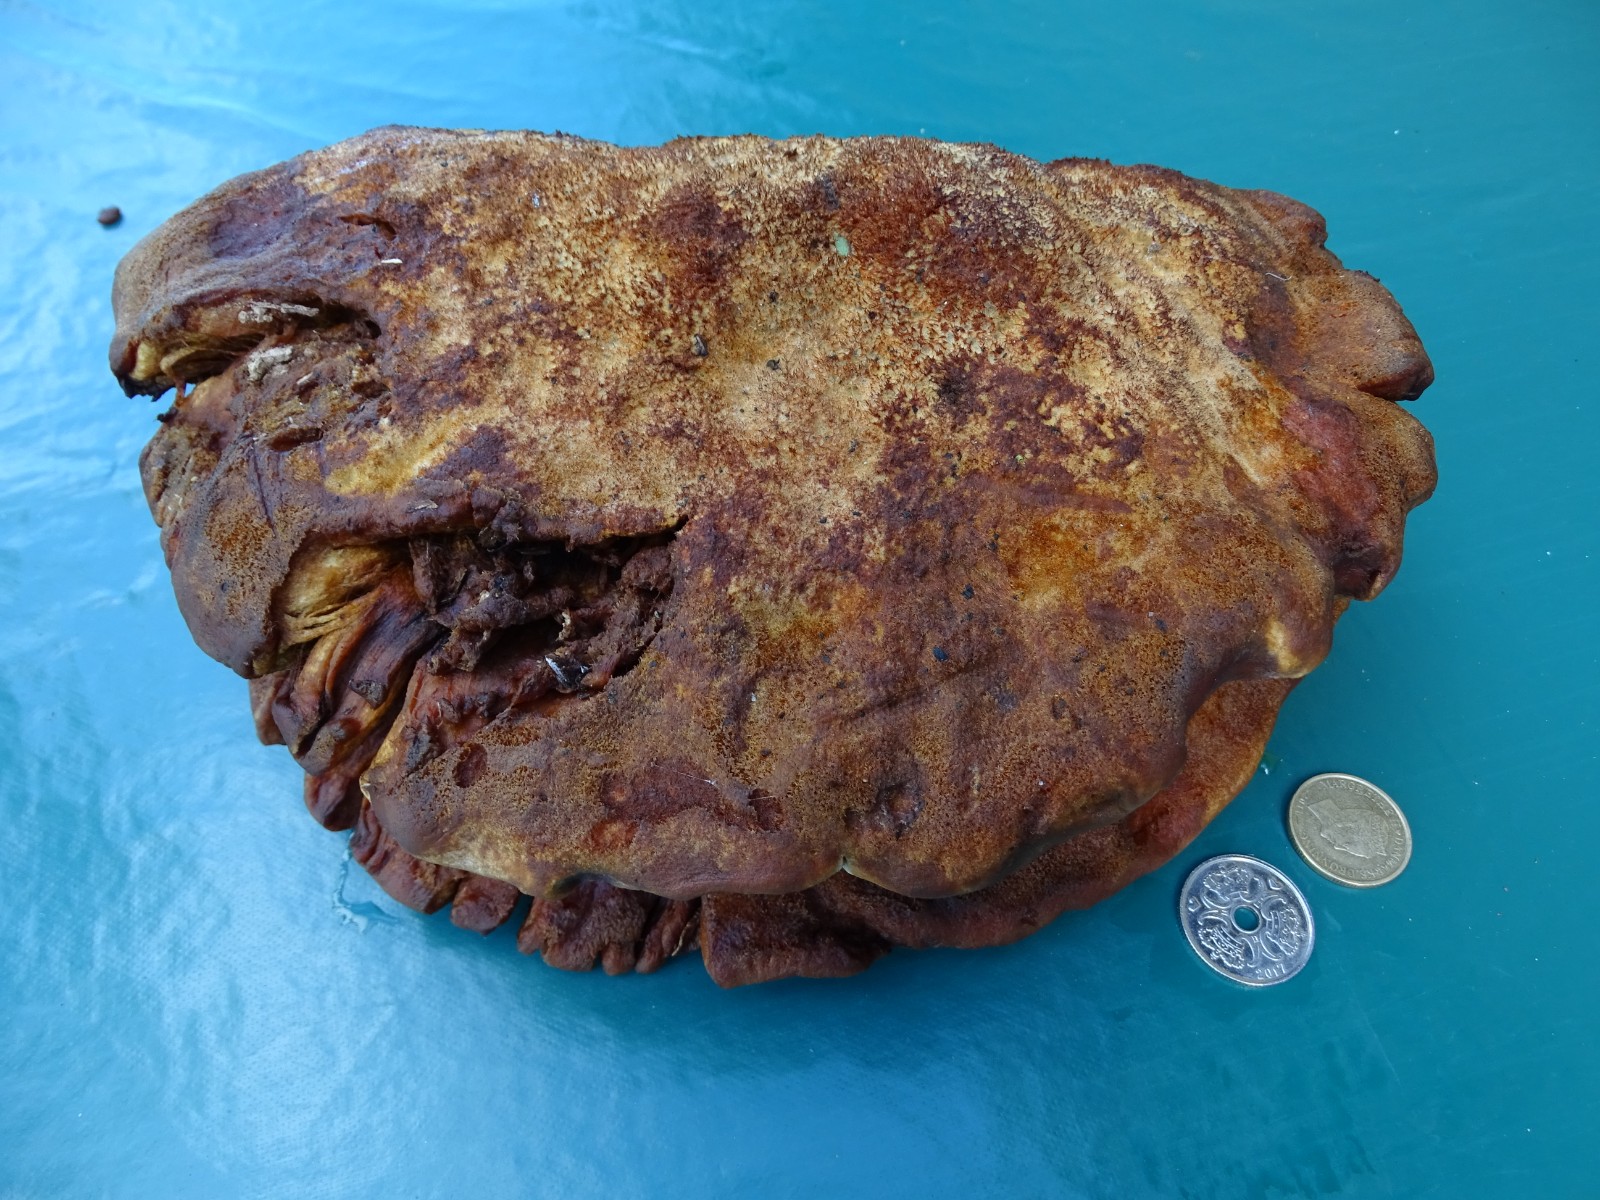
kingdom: Fungi
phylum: Basidiomycota
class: Agaricomycetes
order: Hymenochaetales
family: Hymenochaetaceae
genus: Inonotus
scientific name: Inonotus hispidus
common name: børstehåret spejlporesvamp
